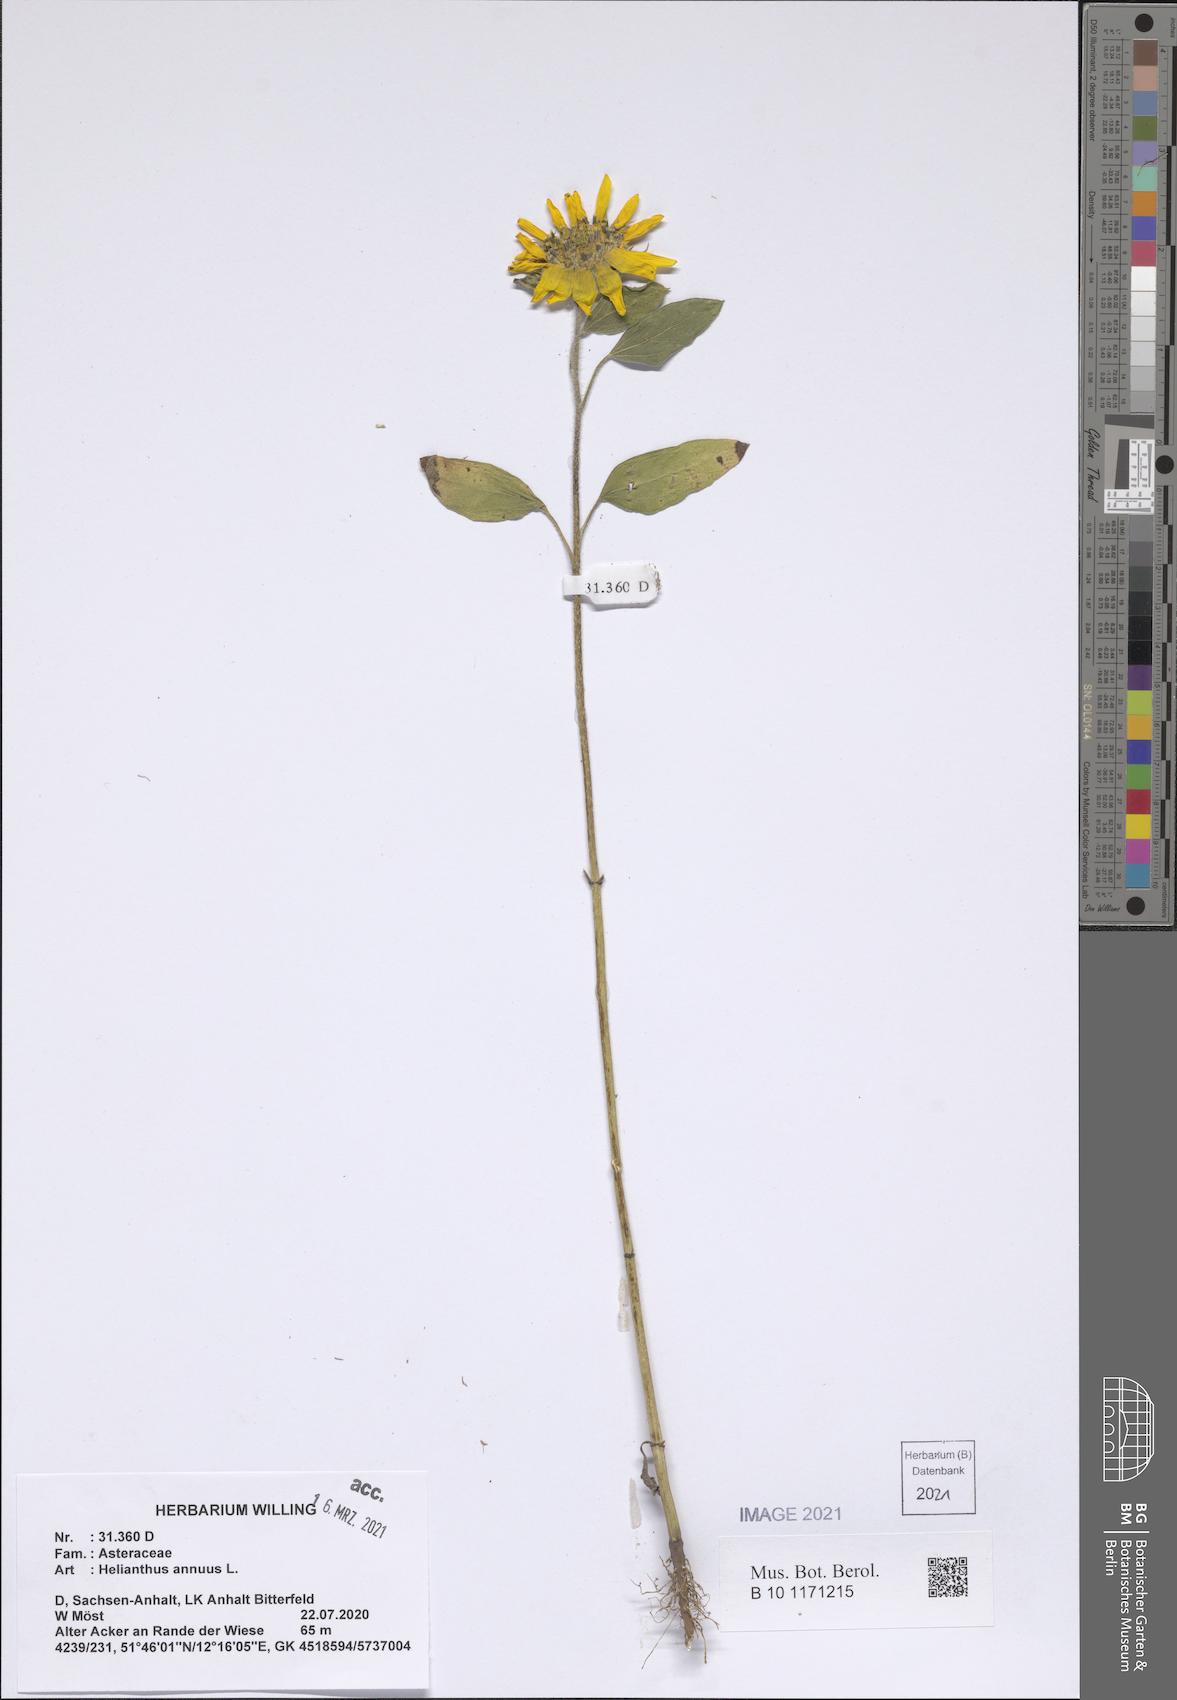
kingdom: Plantae
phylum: Tracheophyta
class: Magnoliopsida
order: Asterales
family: Asteraceae
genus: Helianthus
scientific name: Helianthus annuus
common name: Sunflower
